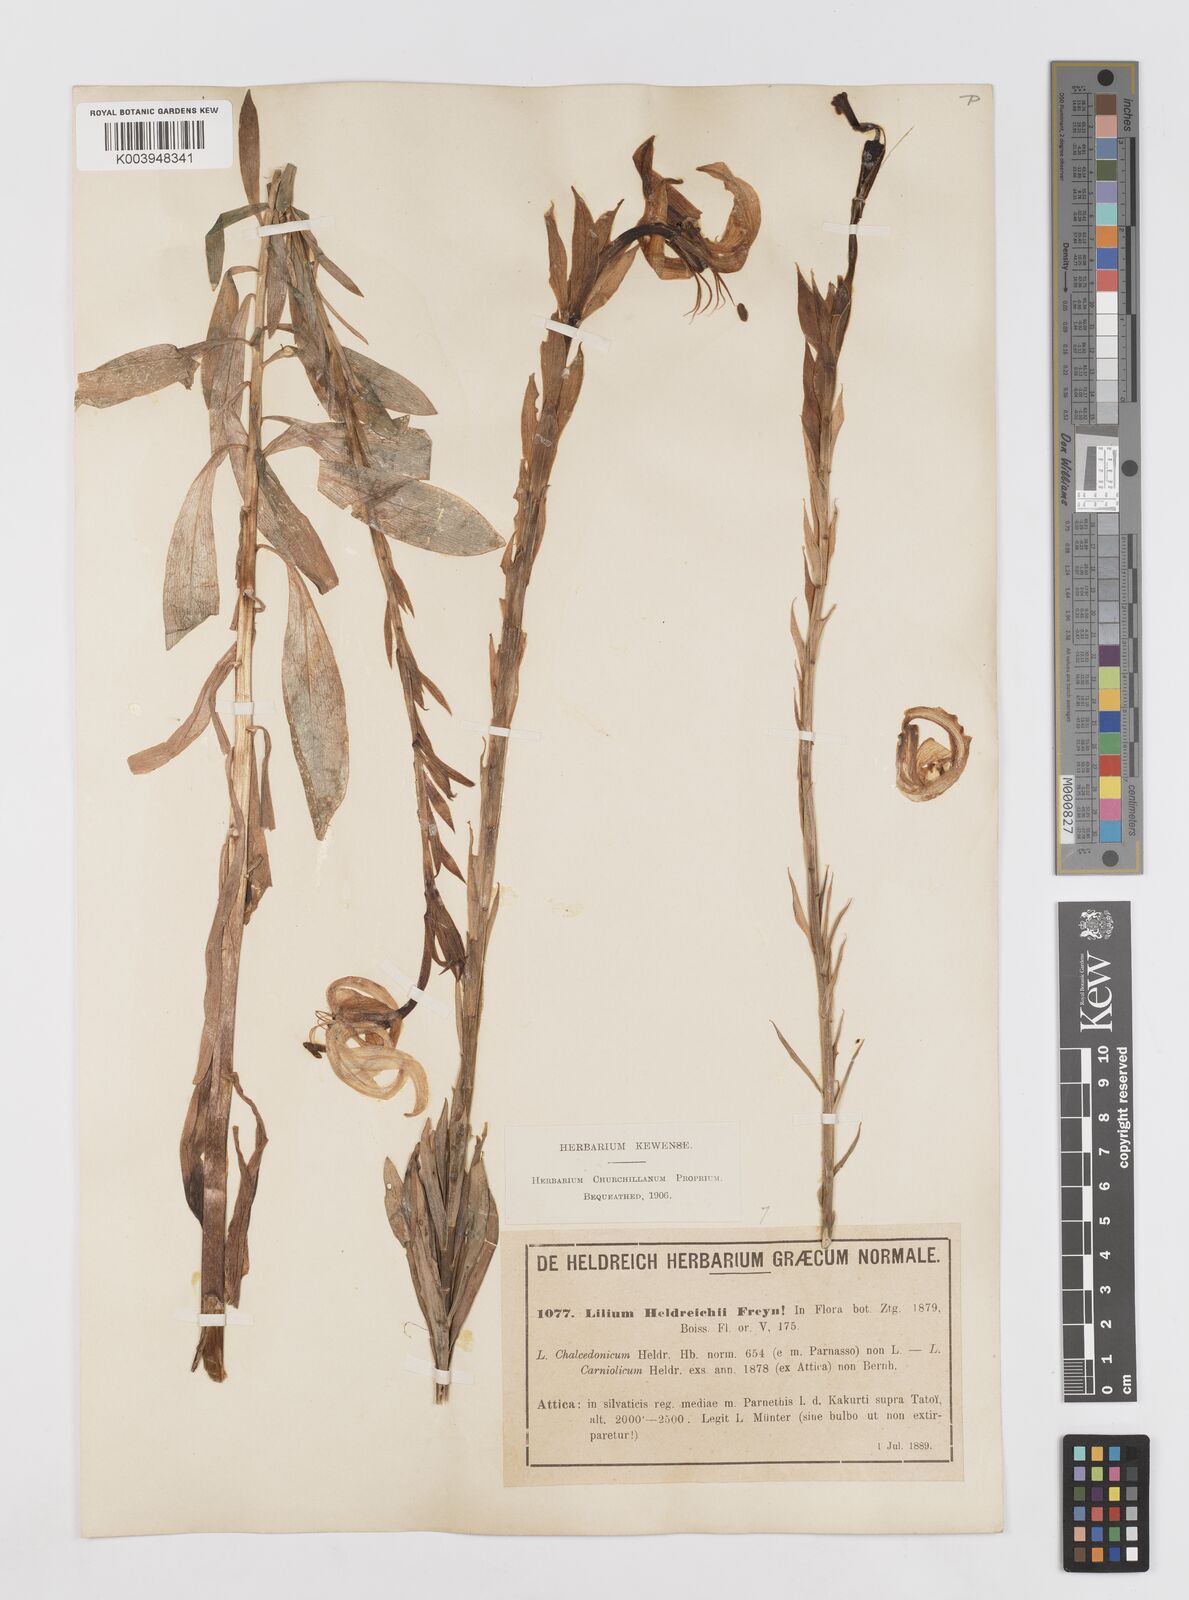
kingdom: Plantae
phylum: Tracheophyta
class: Liliopsida
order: Liliales
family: Liliaceae
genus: Lilium
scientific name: Lilium
